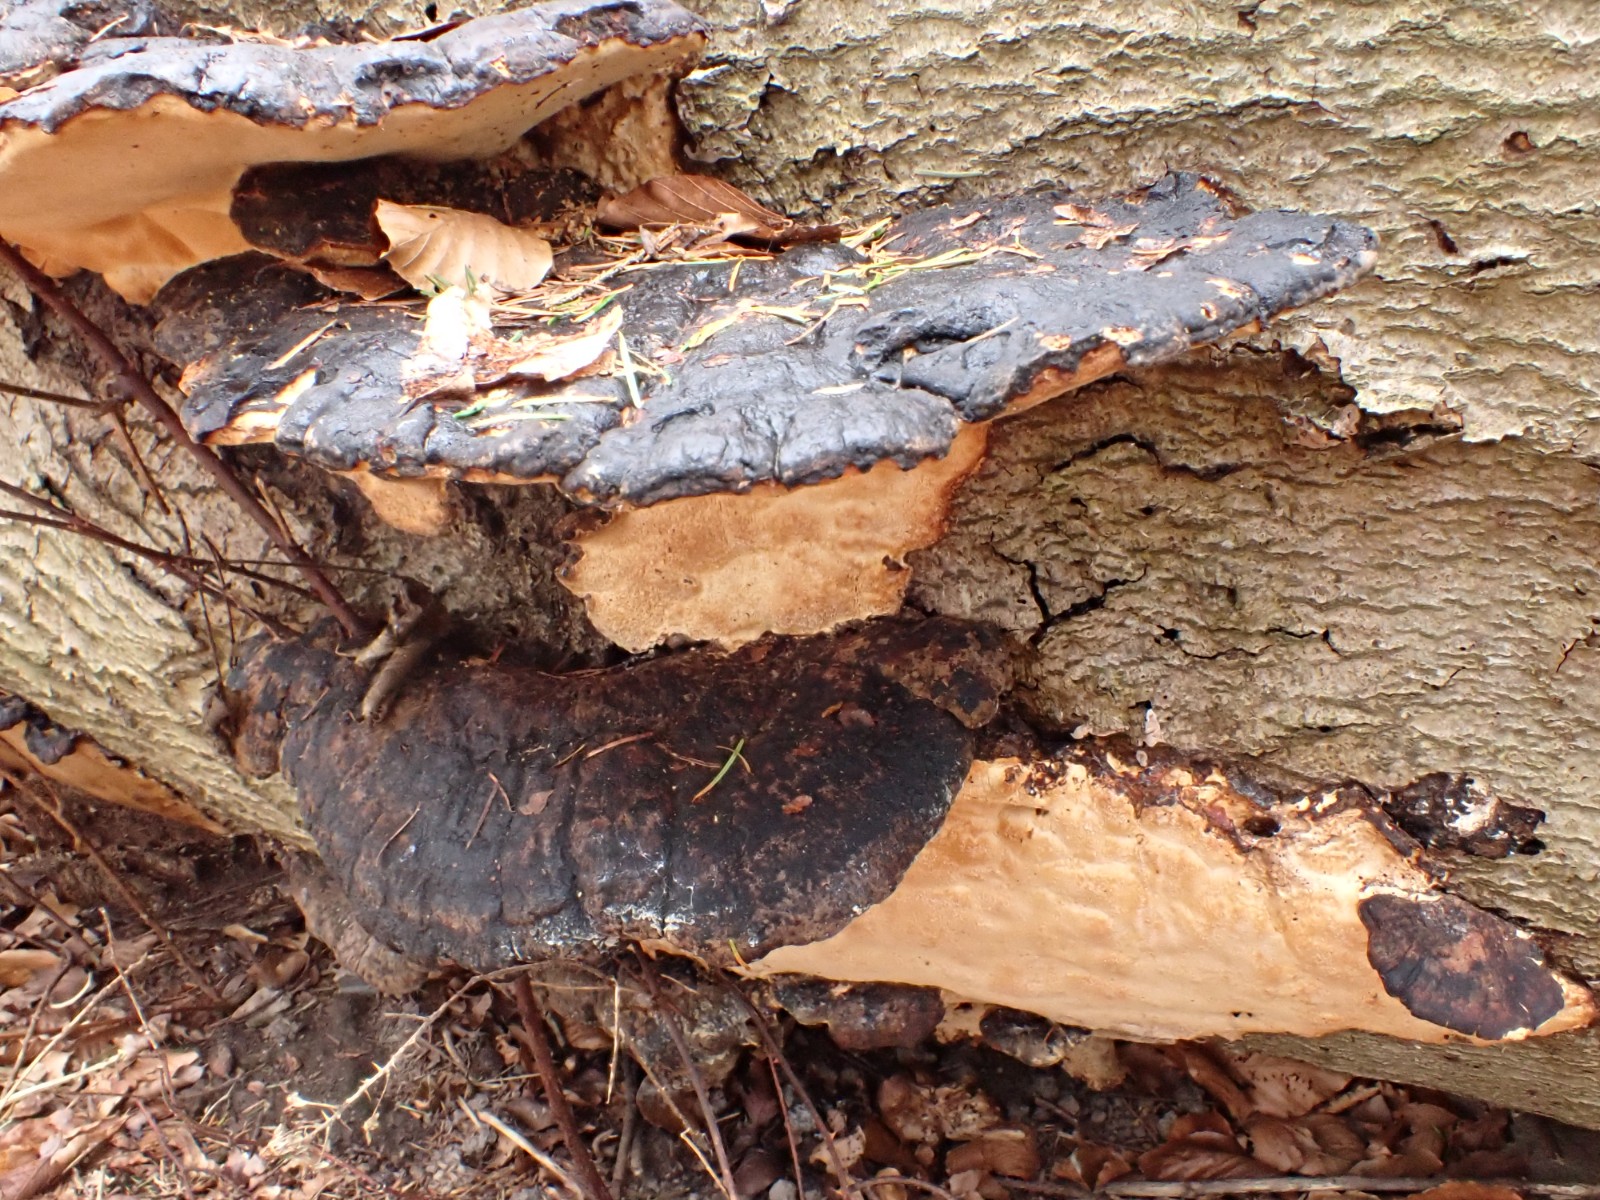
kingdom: Fungi
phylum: Basidiomycota
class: Agaricomycetes
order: Polyporales
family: Ischnodermataceae
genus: Ischnoderma
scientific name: Ischnoderma resinosum
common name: løv-tjæreporesvamp
